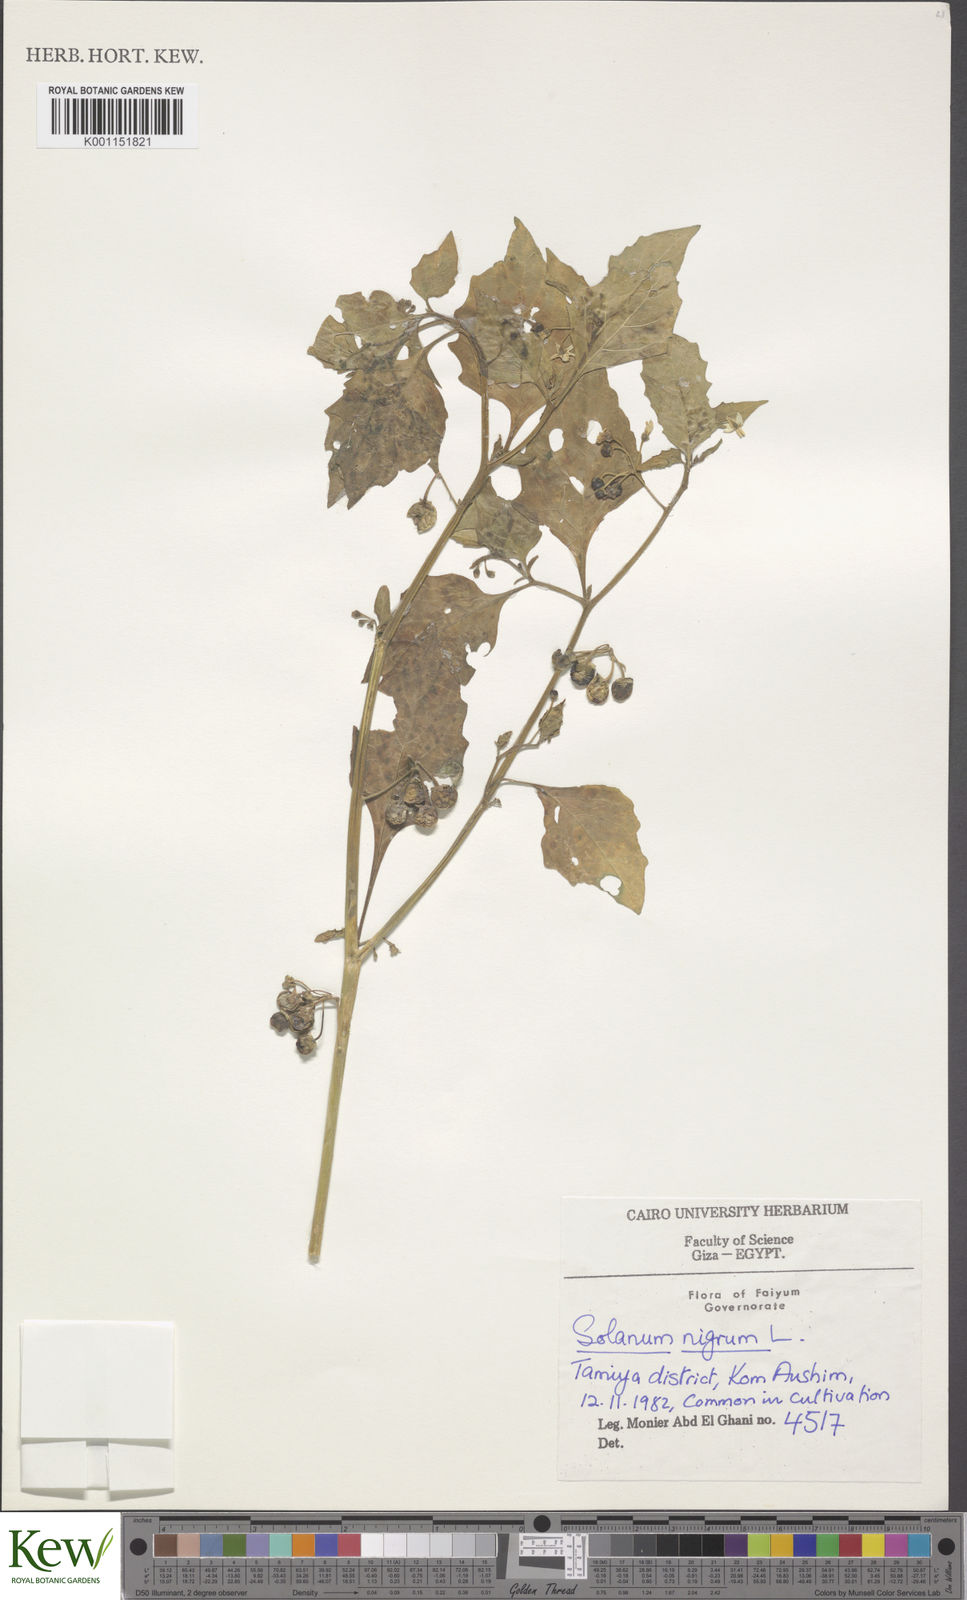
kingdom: Plantae
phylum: Tracheophyta
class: Magnoliopsida
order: Solanales
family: Solanaceae
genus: Solanum
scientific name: Solanum nigrum
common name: Black nightshade
